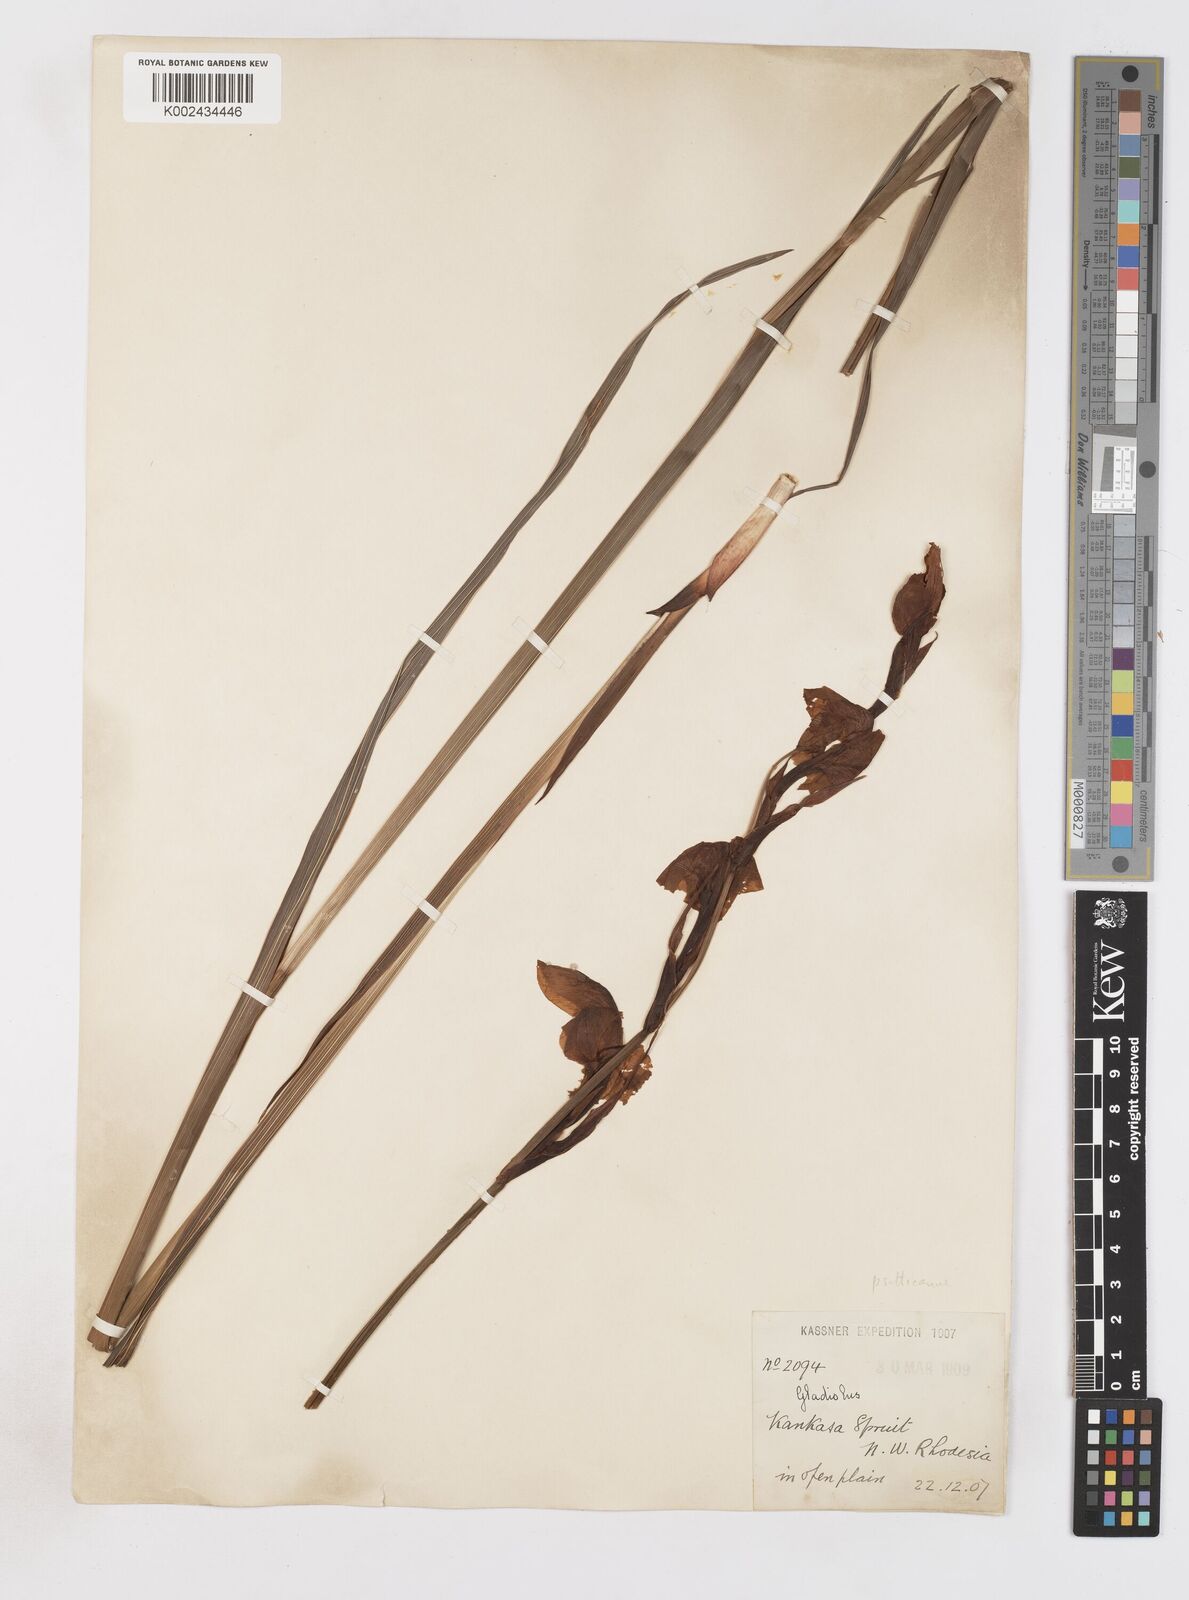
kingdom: Plantae
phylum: Tracheophyta
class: Liliopsida
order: Asparagales
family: Iridaceae
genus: Gladiolus
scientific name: Gladiolus dalenii
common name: Cornflag
